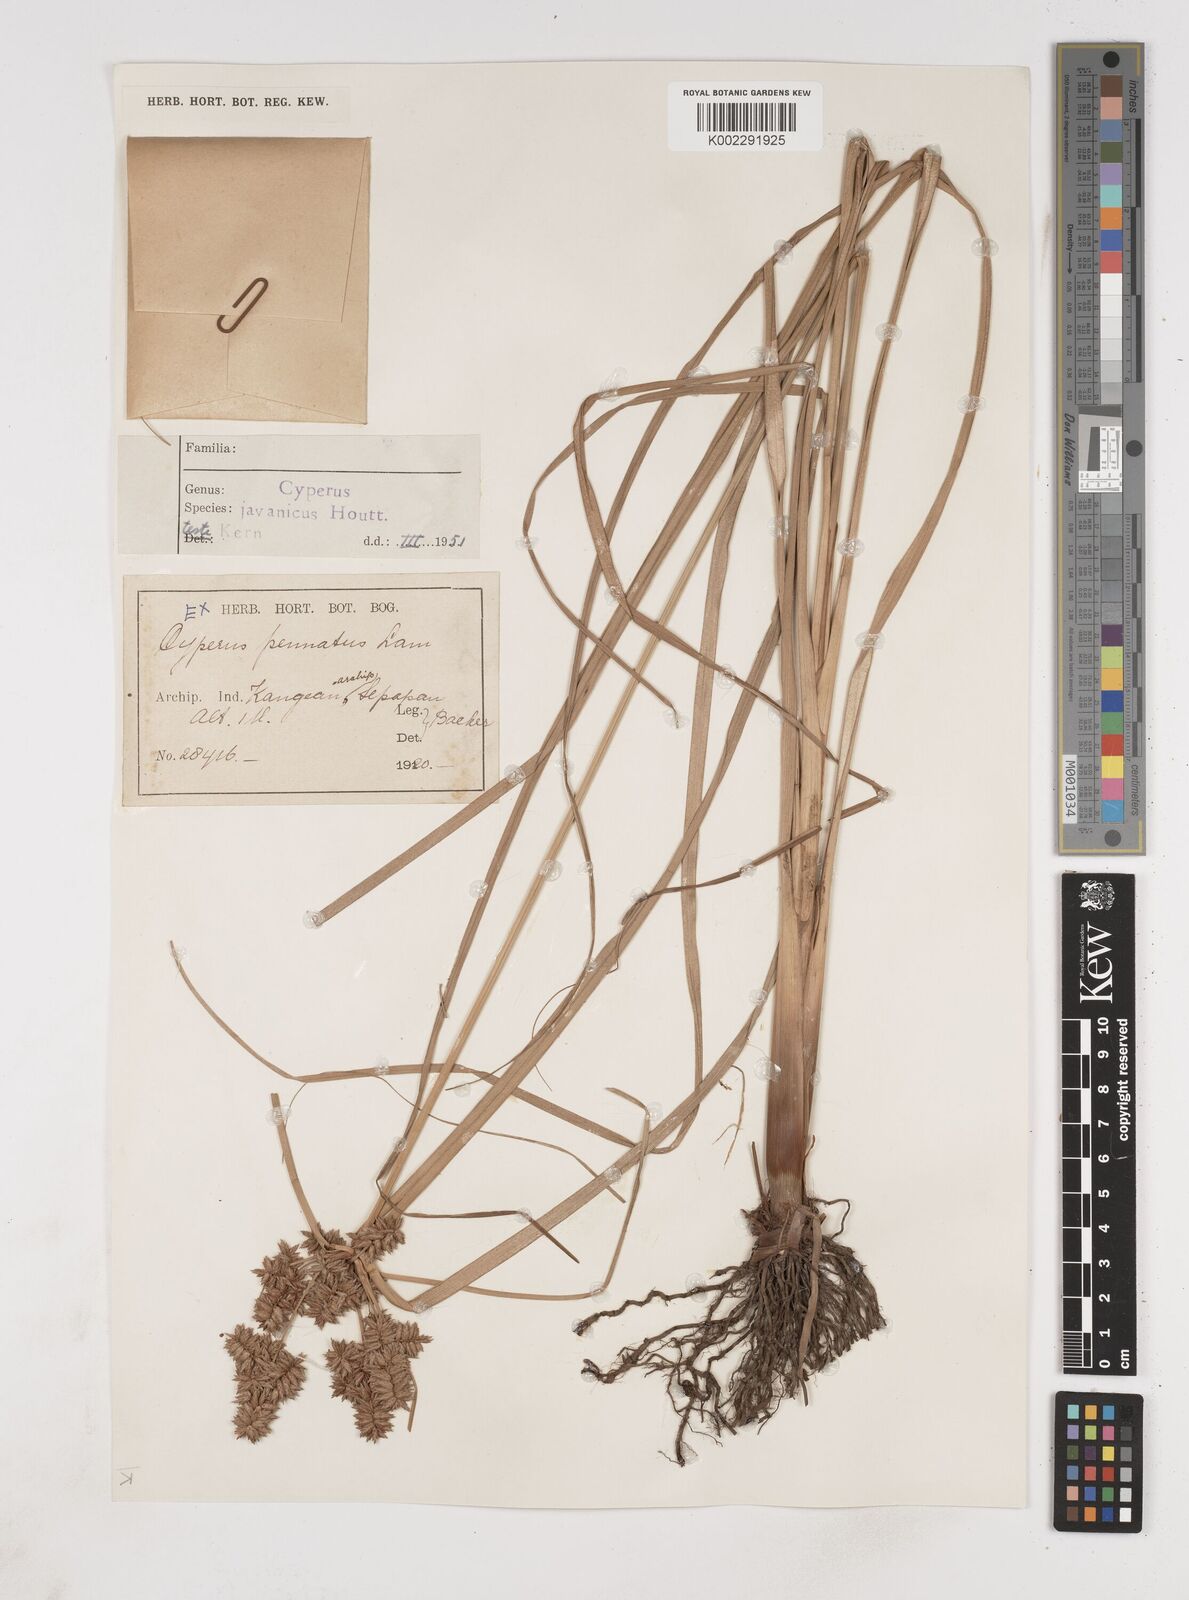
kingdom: Plantae
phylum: Tracheophyta
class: Liliopsida
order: Poales
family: Cyperaceae
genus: Cyperus
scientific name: Cyperus javanicus
